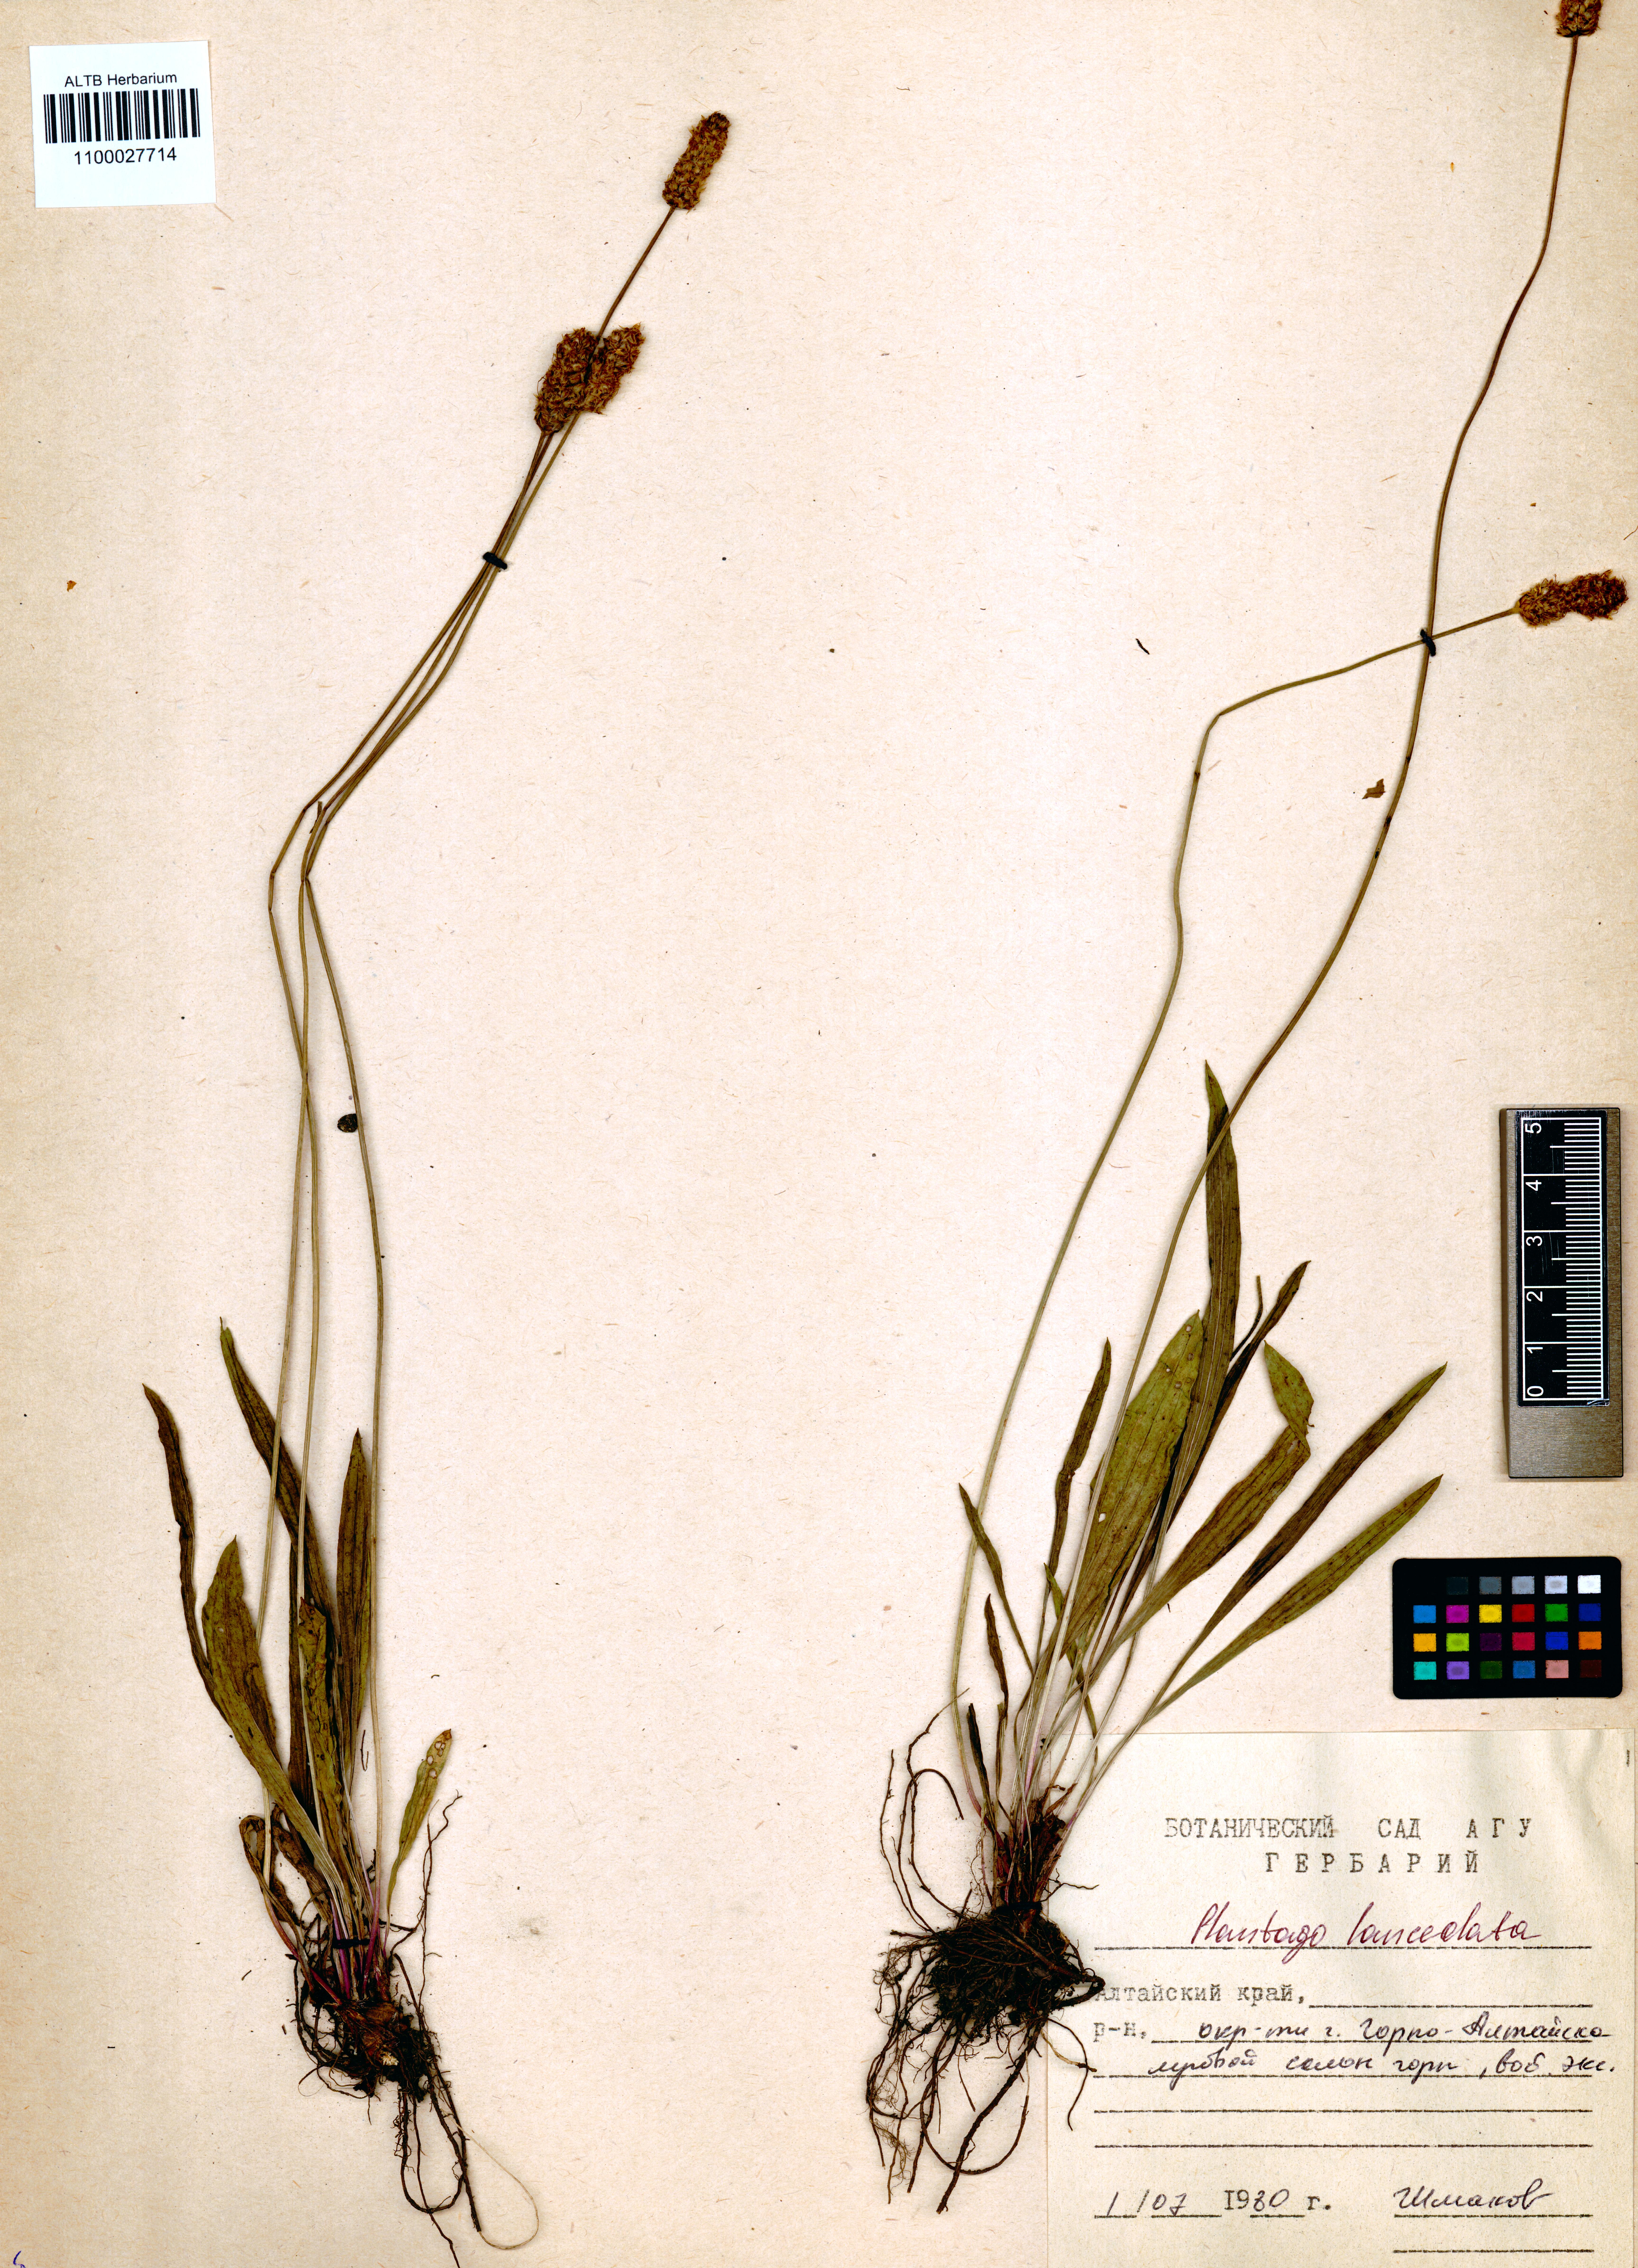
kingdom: Plantae
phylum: Tracheophyta
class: Magnoliopsida
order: Lamiales
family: Plantaginaceae
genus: Plantago
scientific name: Plantago lanceolata
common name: Ribwort plantain
